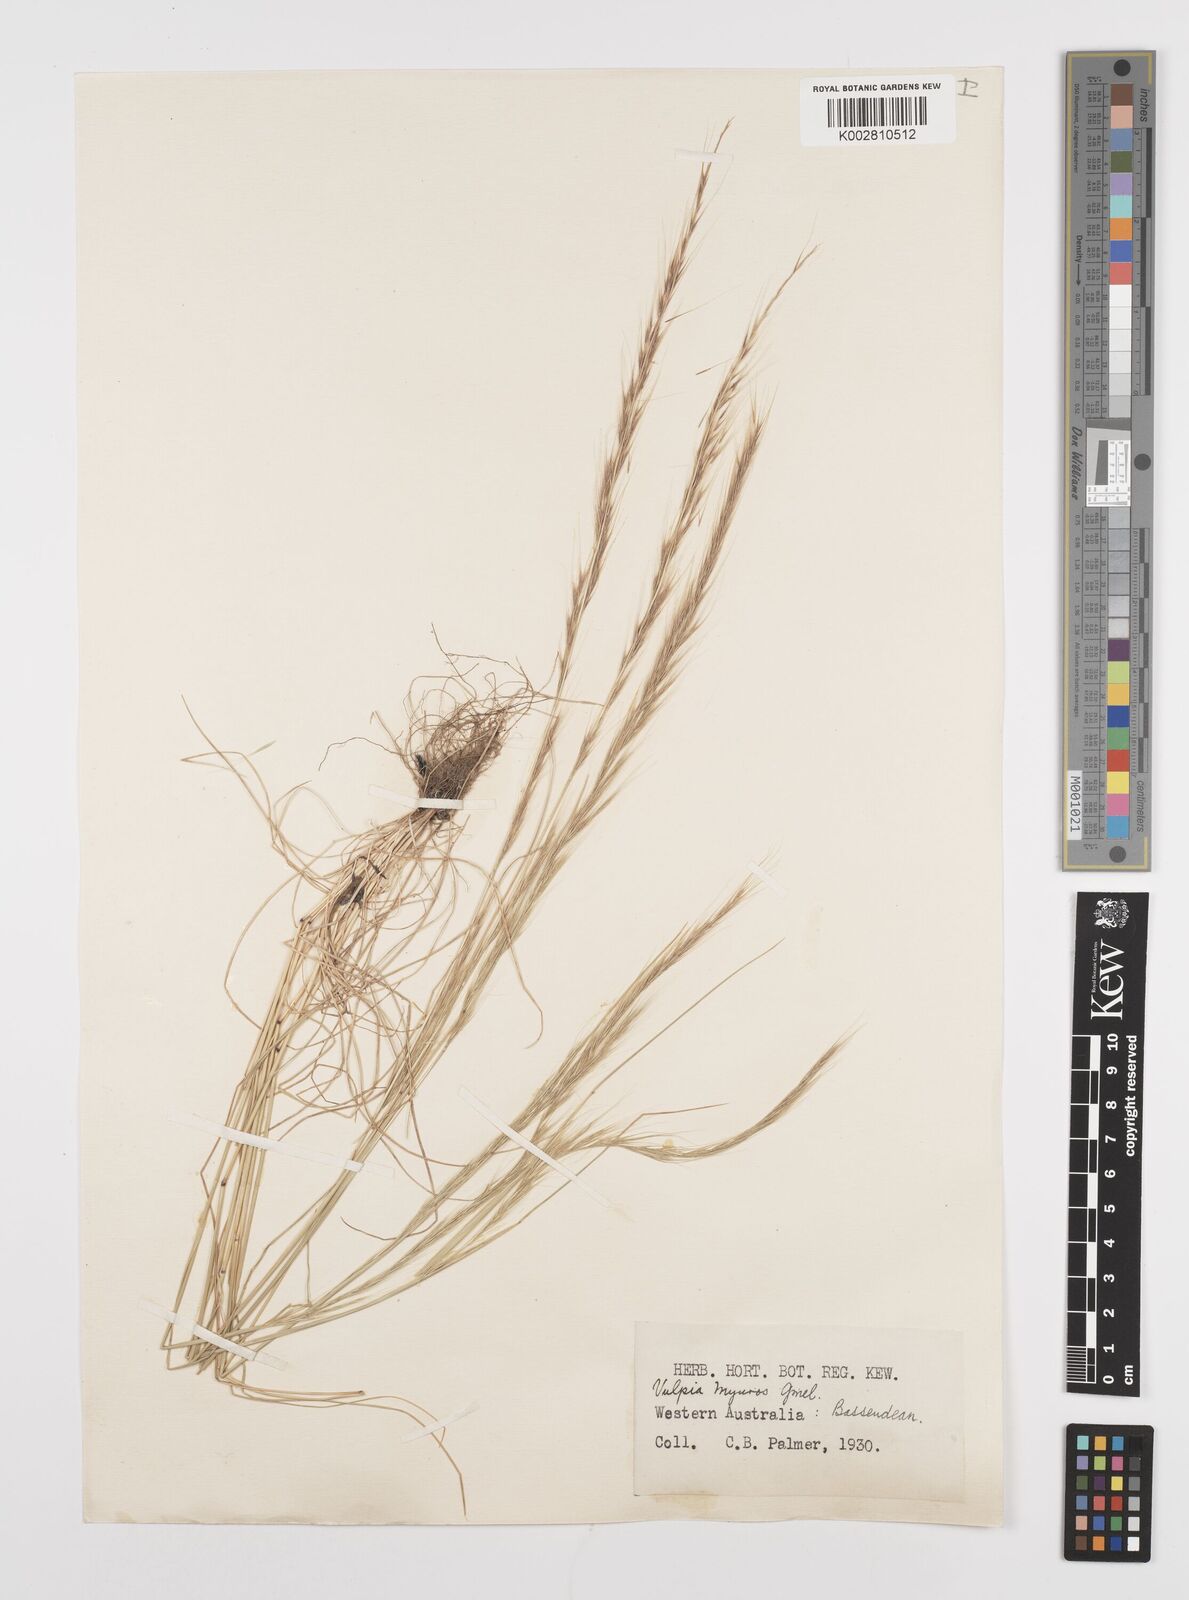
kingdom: Plantae
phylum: Tracheophyta
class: Liliopsida
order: Poales
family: Poaceae
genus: Festuca
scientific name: Festuca myuros
